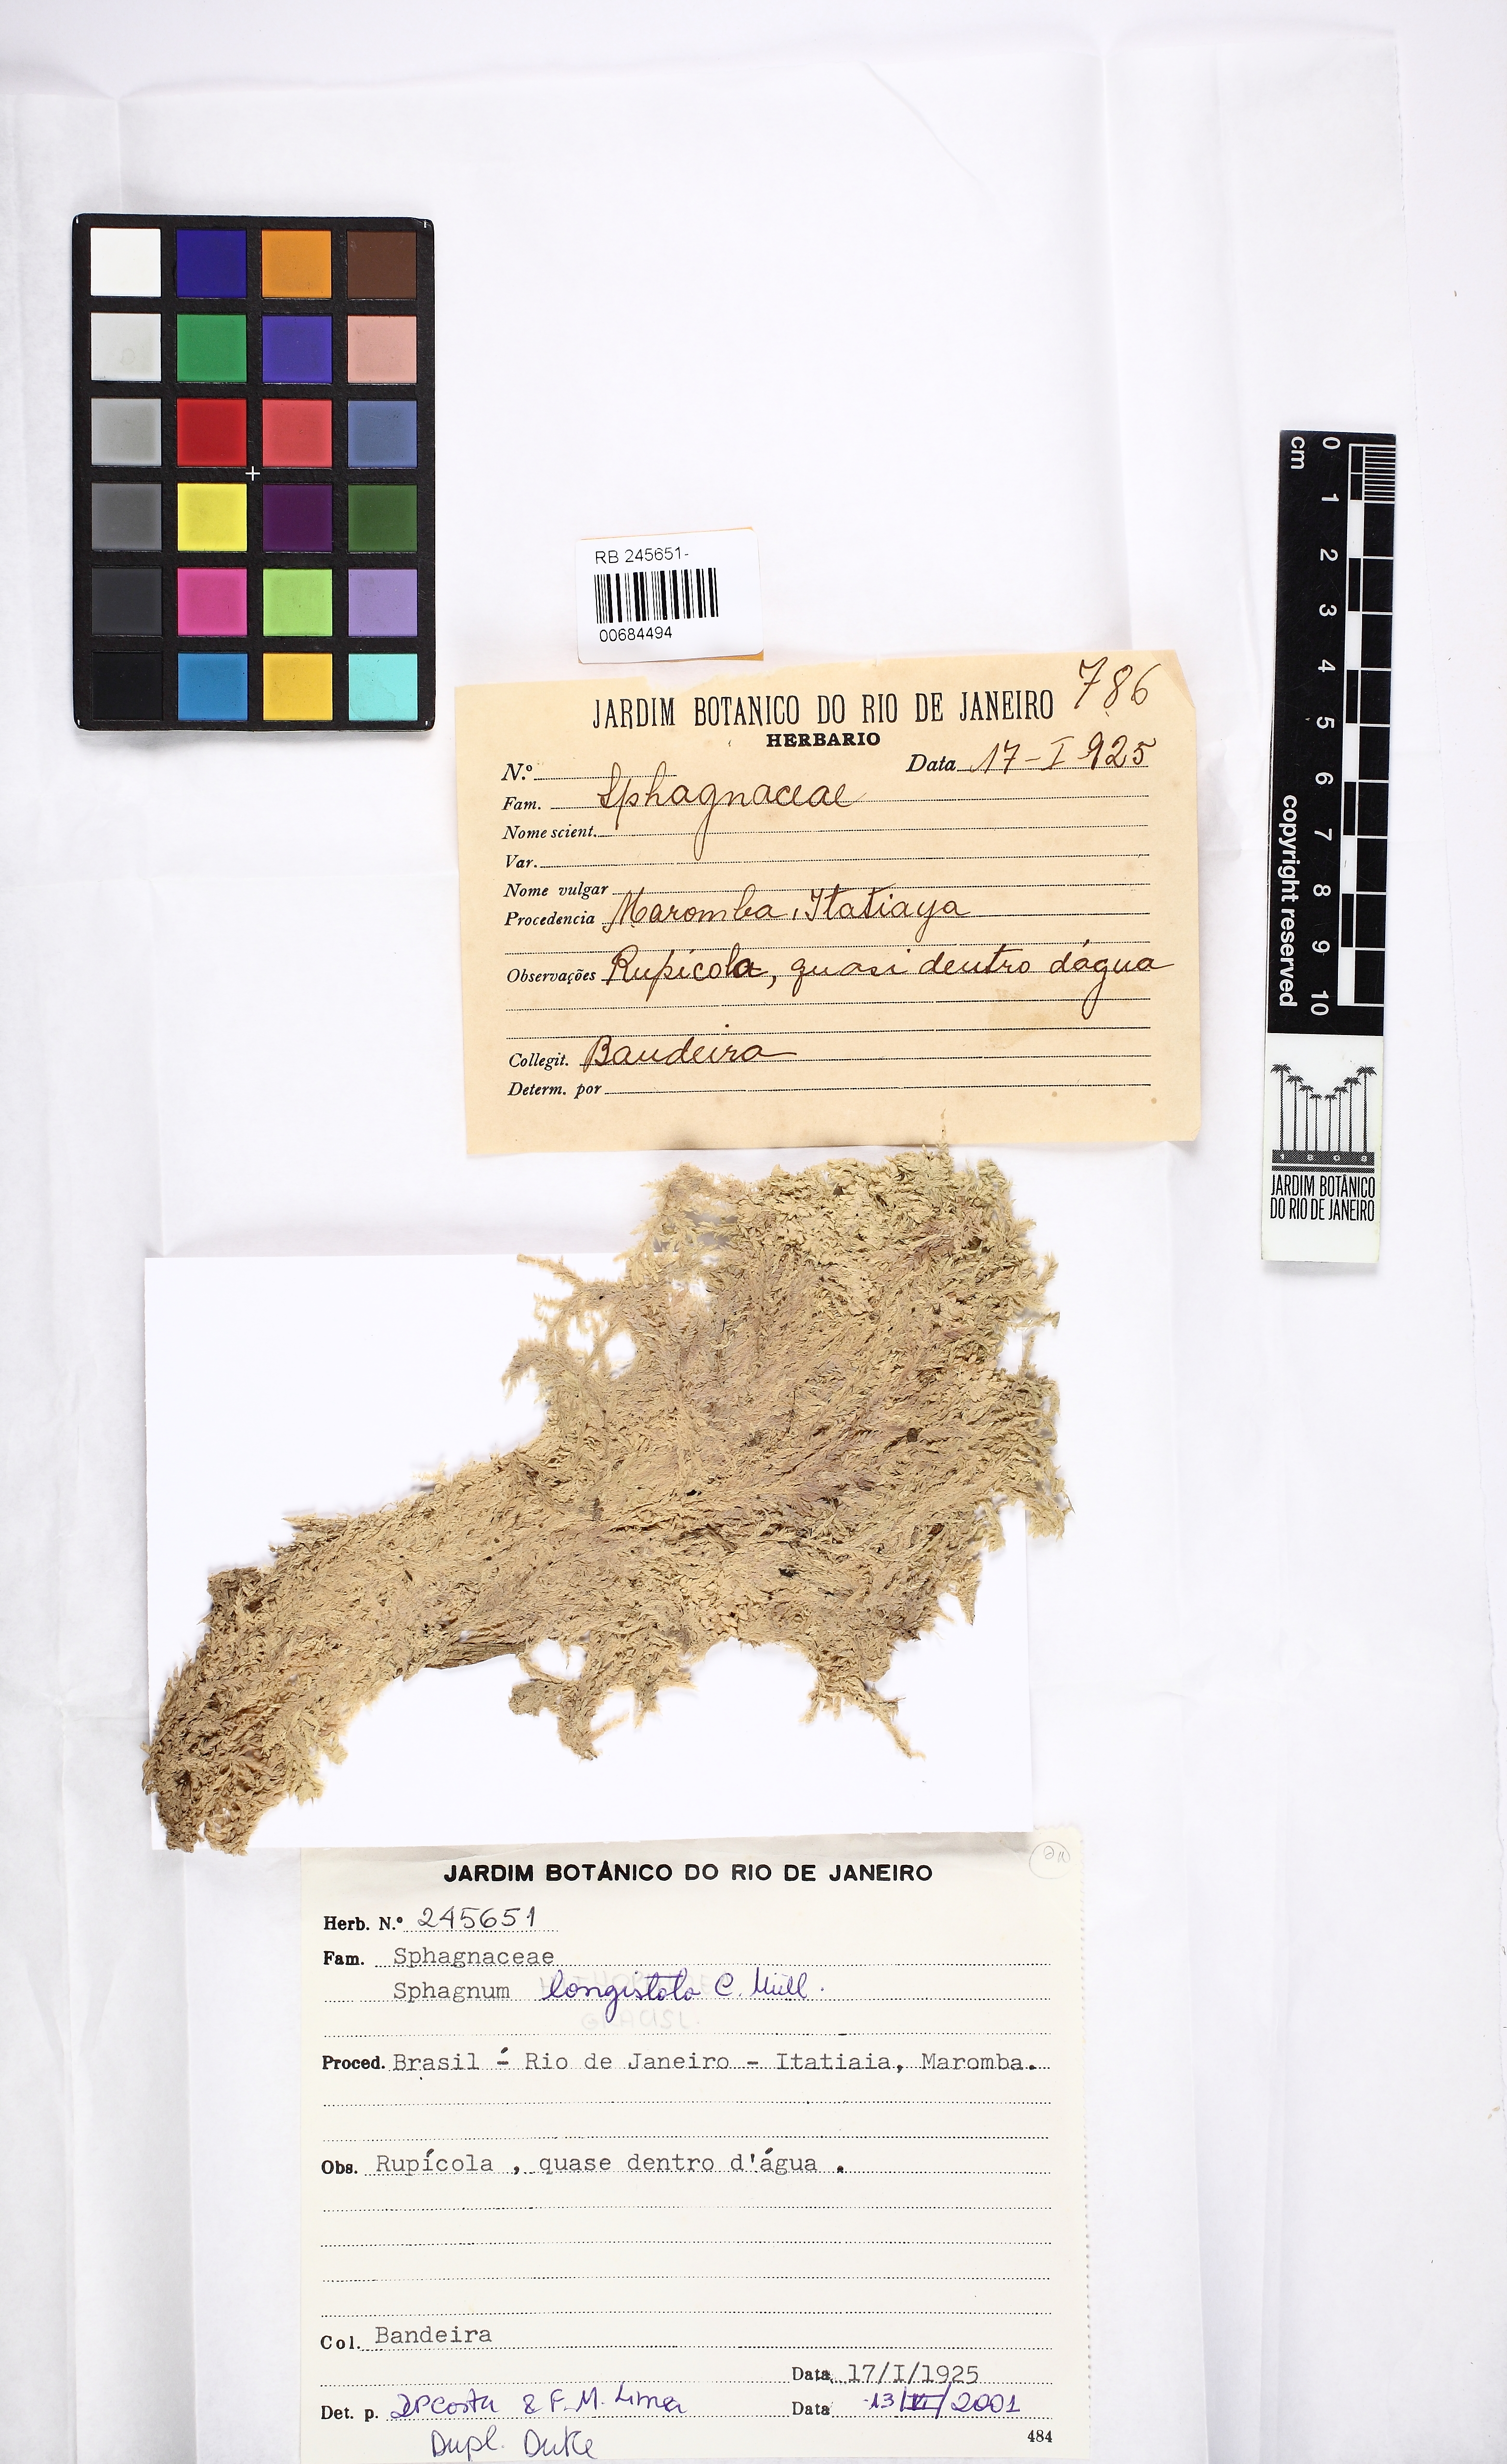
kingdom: Plantae
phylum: Bryophyta
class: Sphagnopsida
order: Sphagnales
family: Sphagnaceae
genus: Sphagnum
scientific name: Sphagnum longistolo
